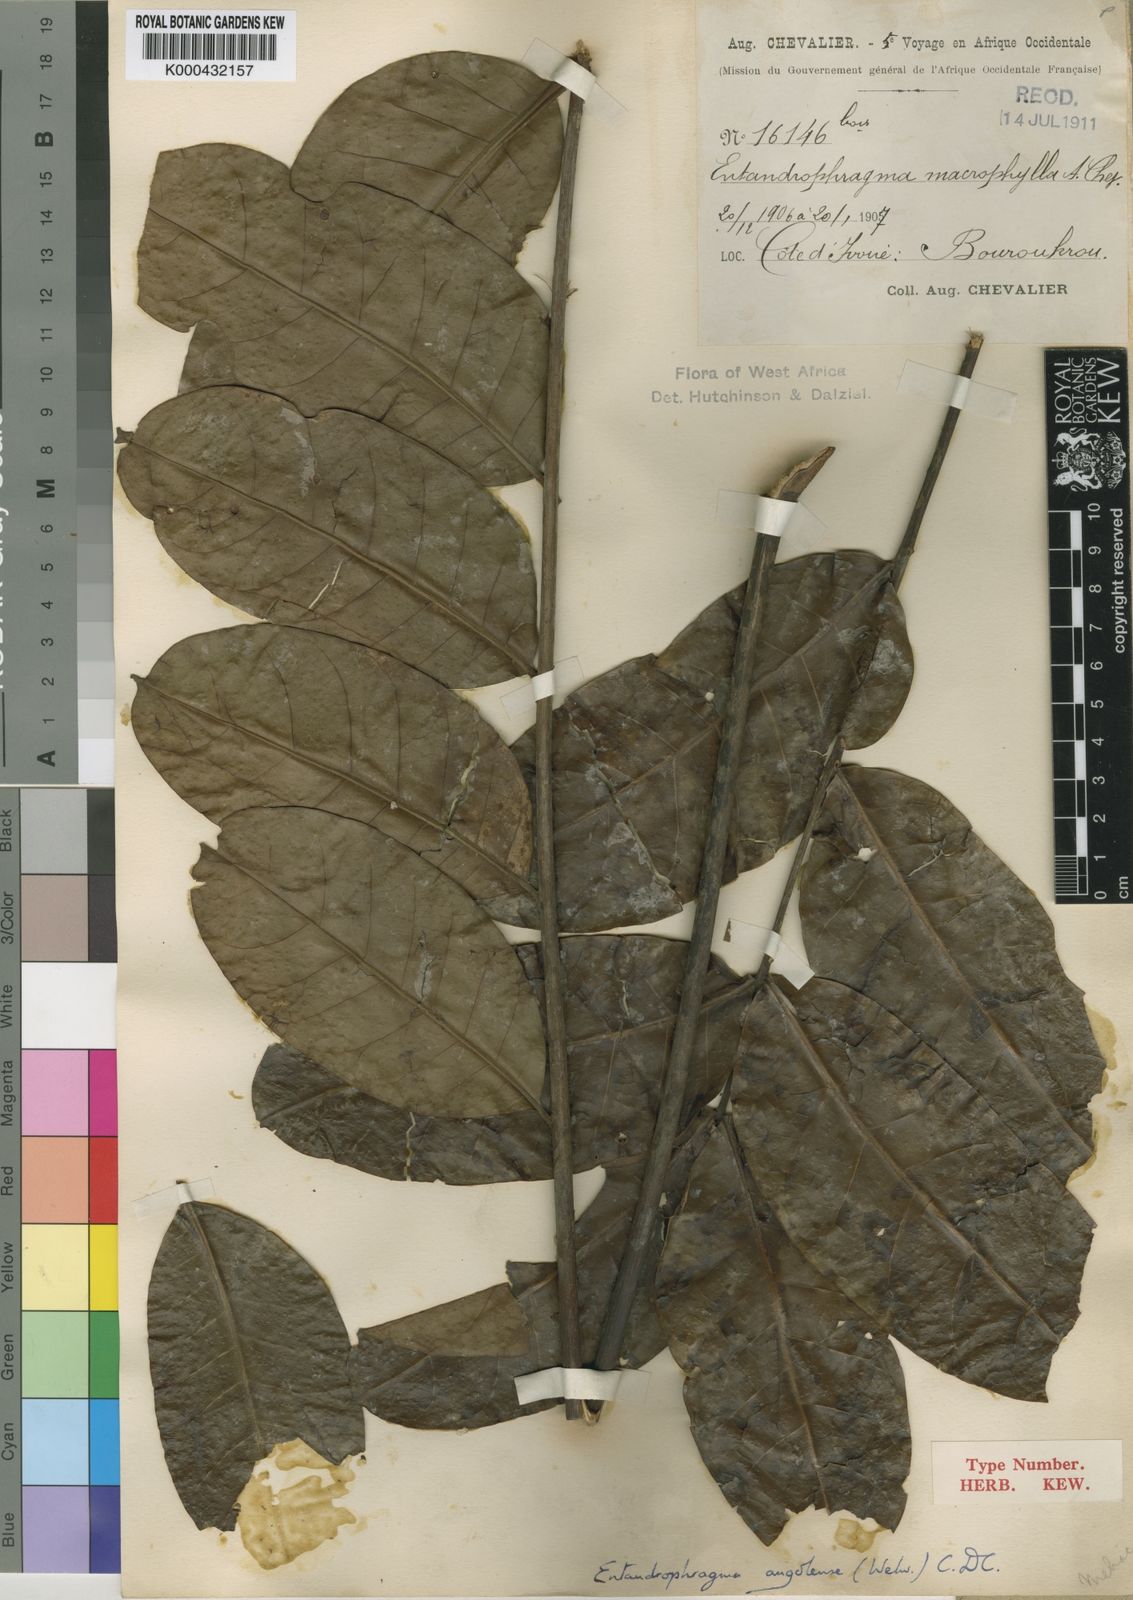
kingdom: Plantae
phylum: Tracheophyta
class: Magnoliopsida
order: Sapindales
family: Meliaceae
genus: Entandrophragma
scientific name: Entandrophragma
